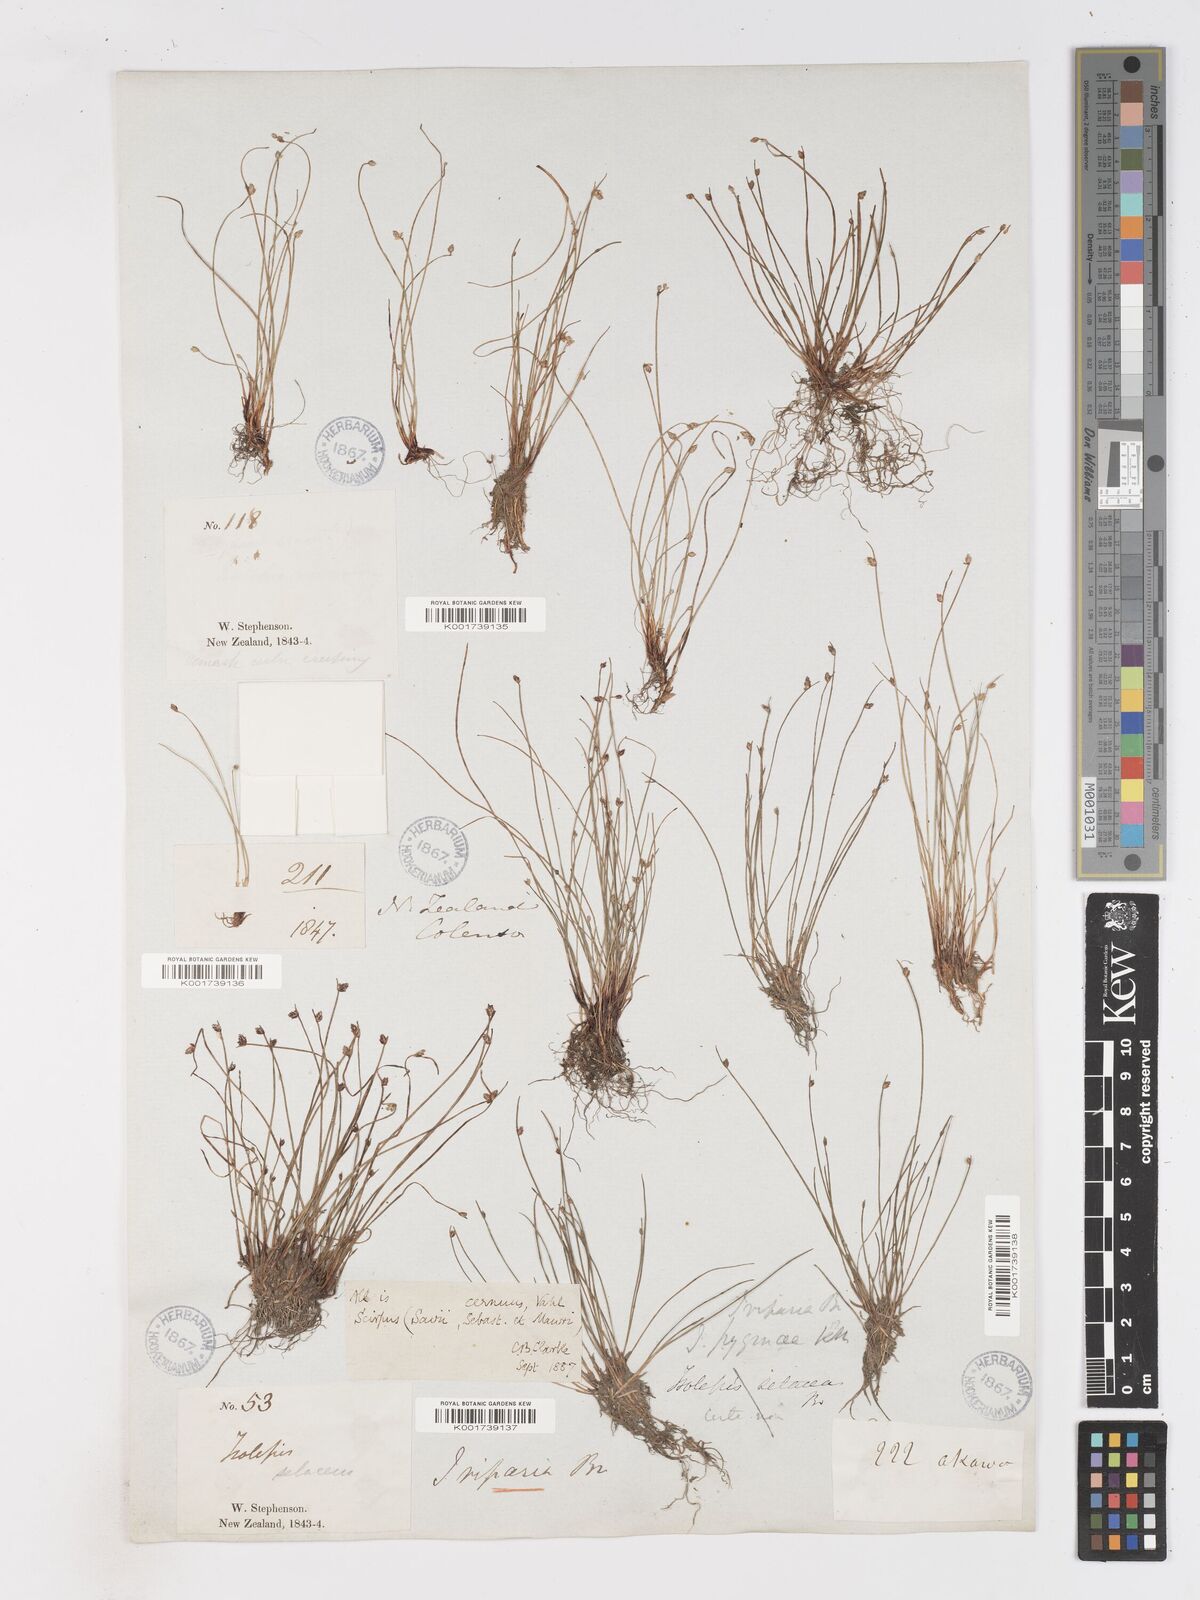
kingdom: Plantae
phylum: Tracheophyta
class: Liliopsida
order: Poales
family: Cyperaceae
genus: Isolepis
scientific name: Isolepis cernua
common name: Slender club-rush
